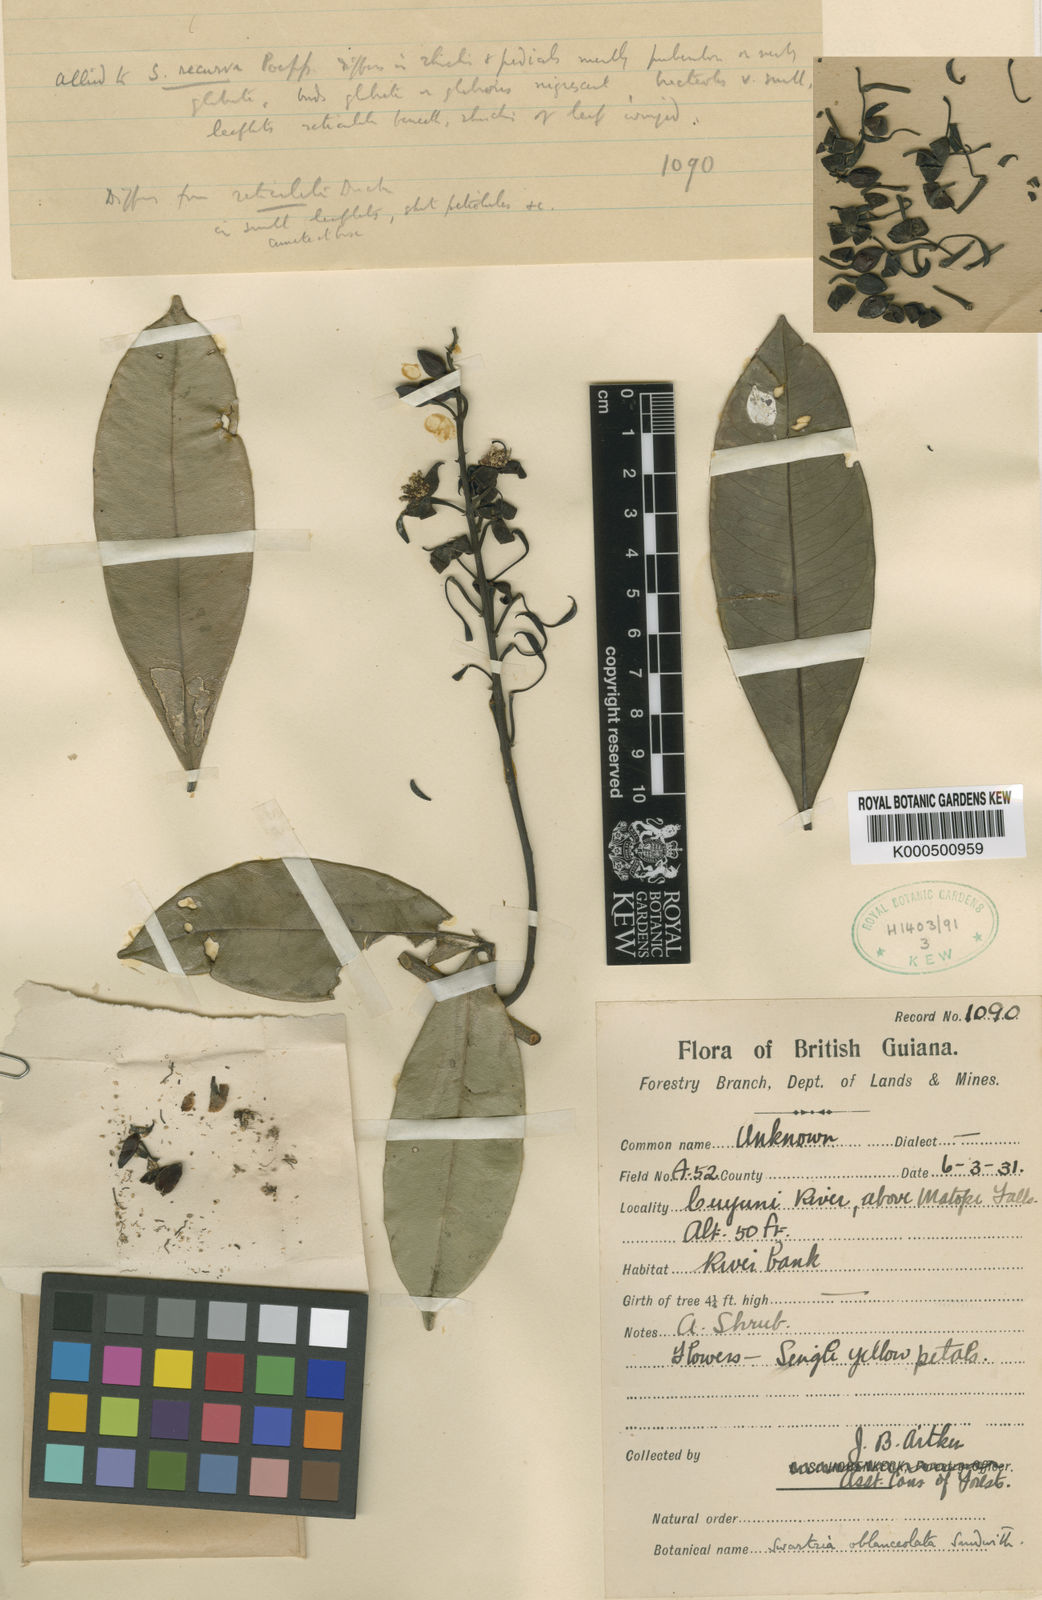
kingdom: Plantae
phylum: Tracheophyta
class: Magnoliopsida
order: Fabales
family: Fabaceae
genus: Swartzia
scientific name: Swartzia oblanceolata
